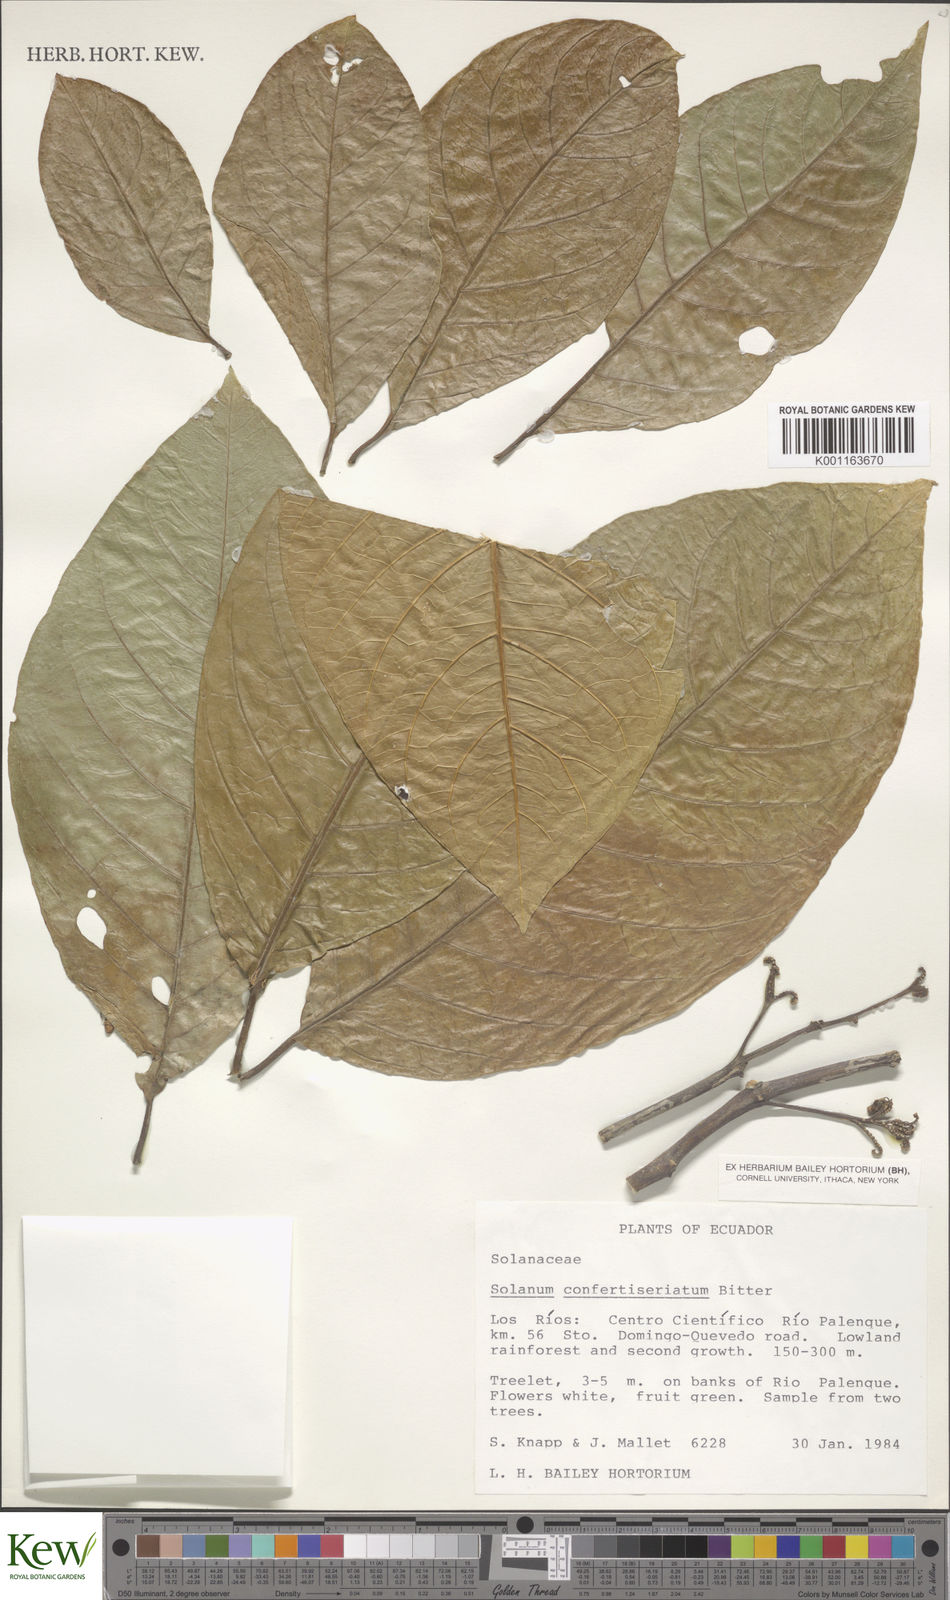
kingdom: Plantae
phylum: Tracheophyta
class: Magnoliopsida
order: Solanales
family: Solanaceae
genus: Solanum
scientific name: Solanum confertiseriatum
